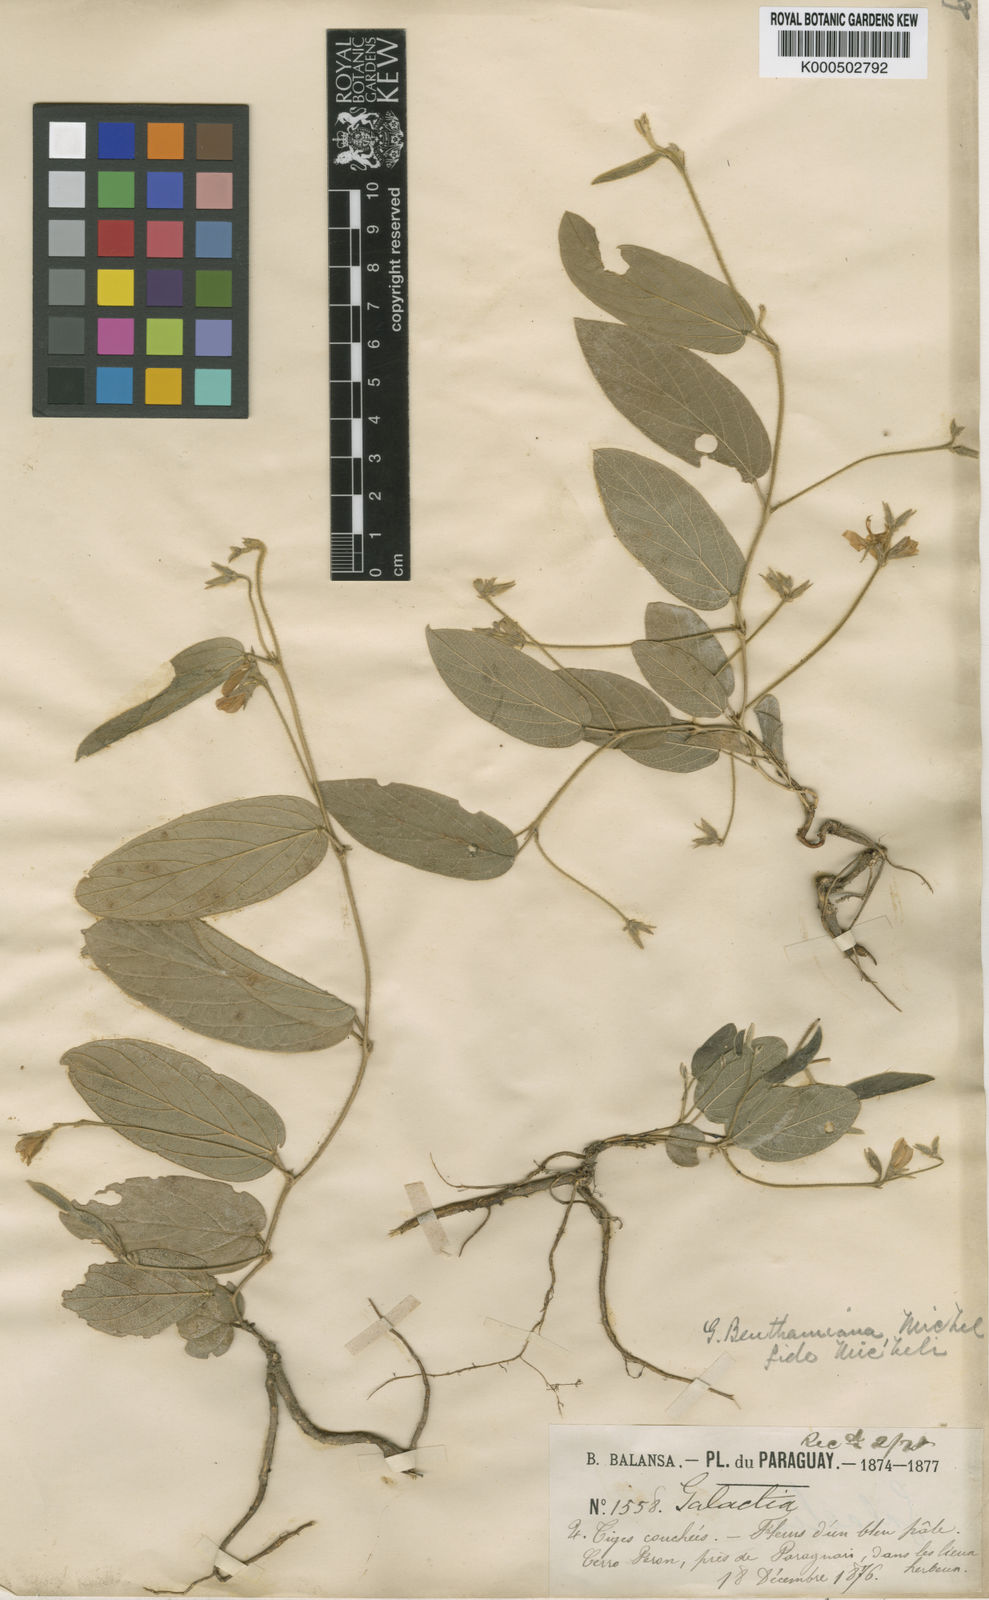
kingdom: Plantae
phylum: Tracheophyta
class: Magnoliopsida
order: Fabales
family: Fabaceae
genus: Galactia
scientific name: Galactia benthamiana
